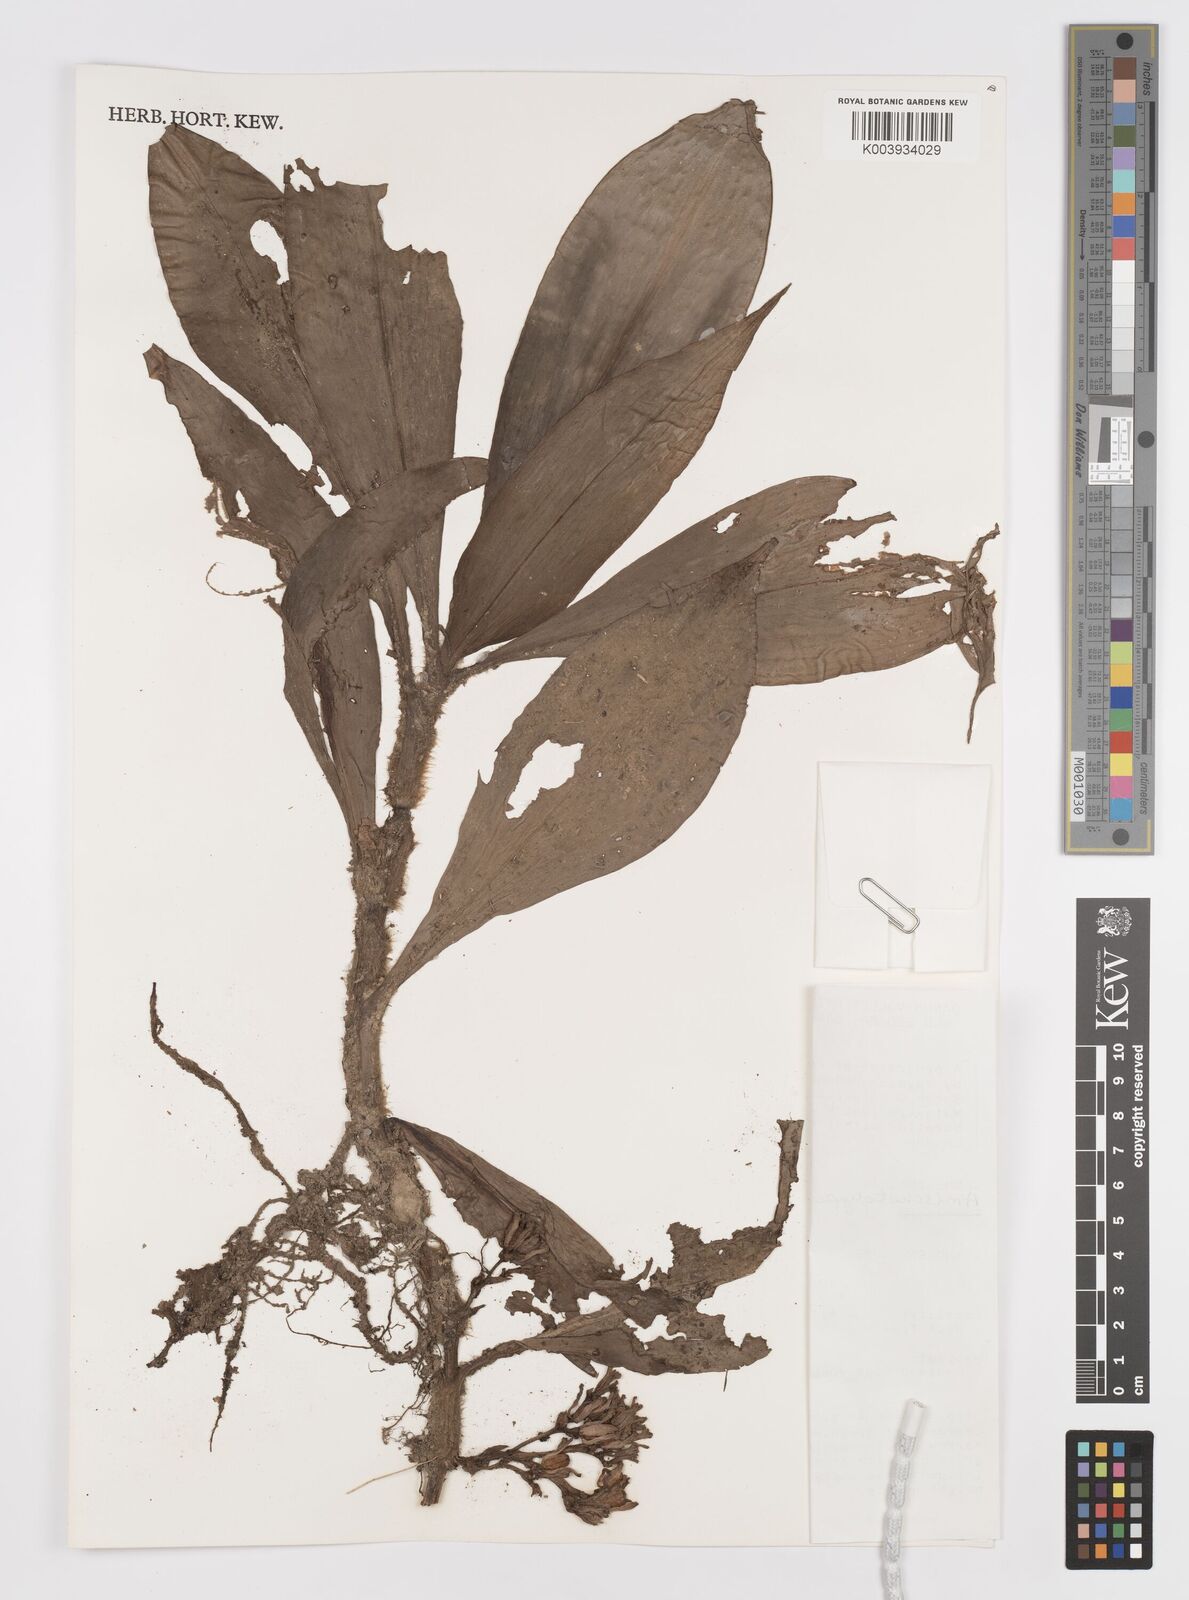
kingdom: Plantae
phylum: Tracheophyta
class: Liliopsida
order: Commelinales
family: Commelinaceae
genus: Amischotolype
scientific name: Amischotolype marginata
